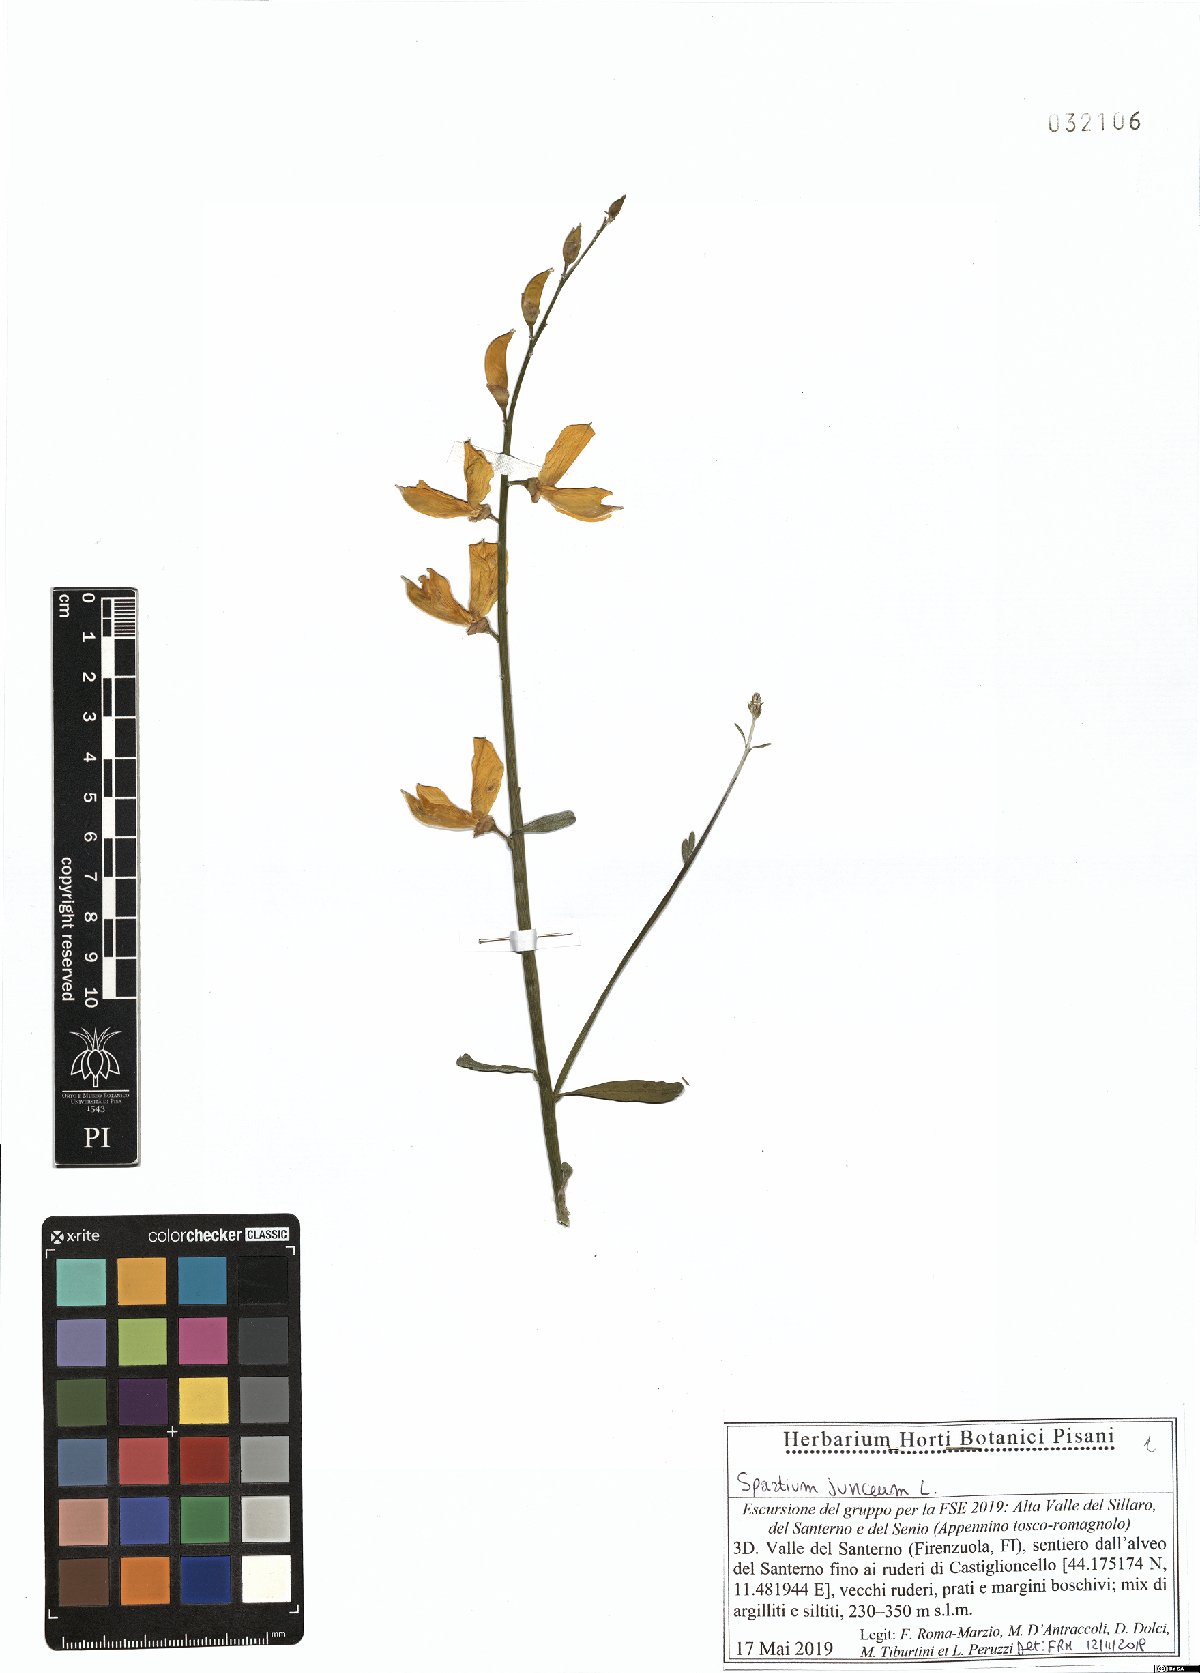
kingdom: Plantae
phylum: Tracheophyta
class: Magnoliopsida
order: Fabales
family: Fabaceae
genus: Spartium
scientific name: Spartium junceum
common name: Spanish broom
